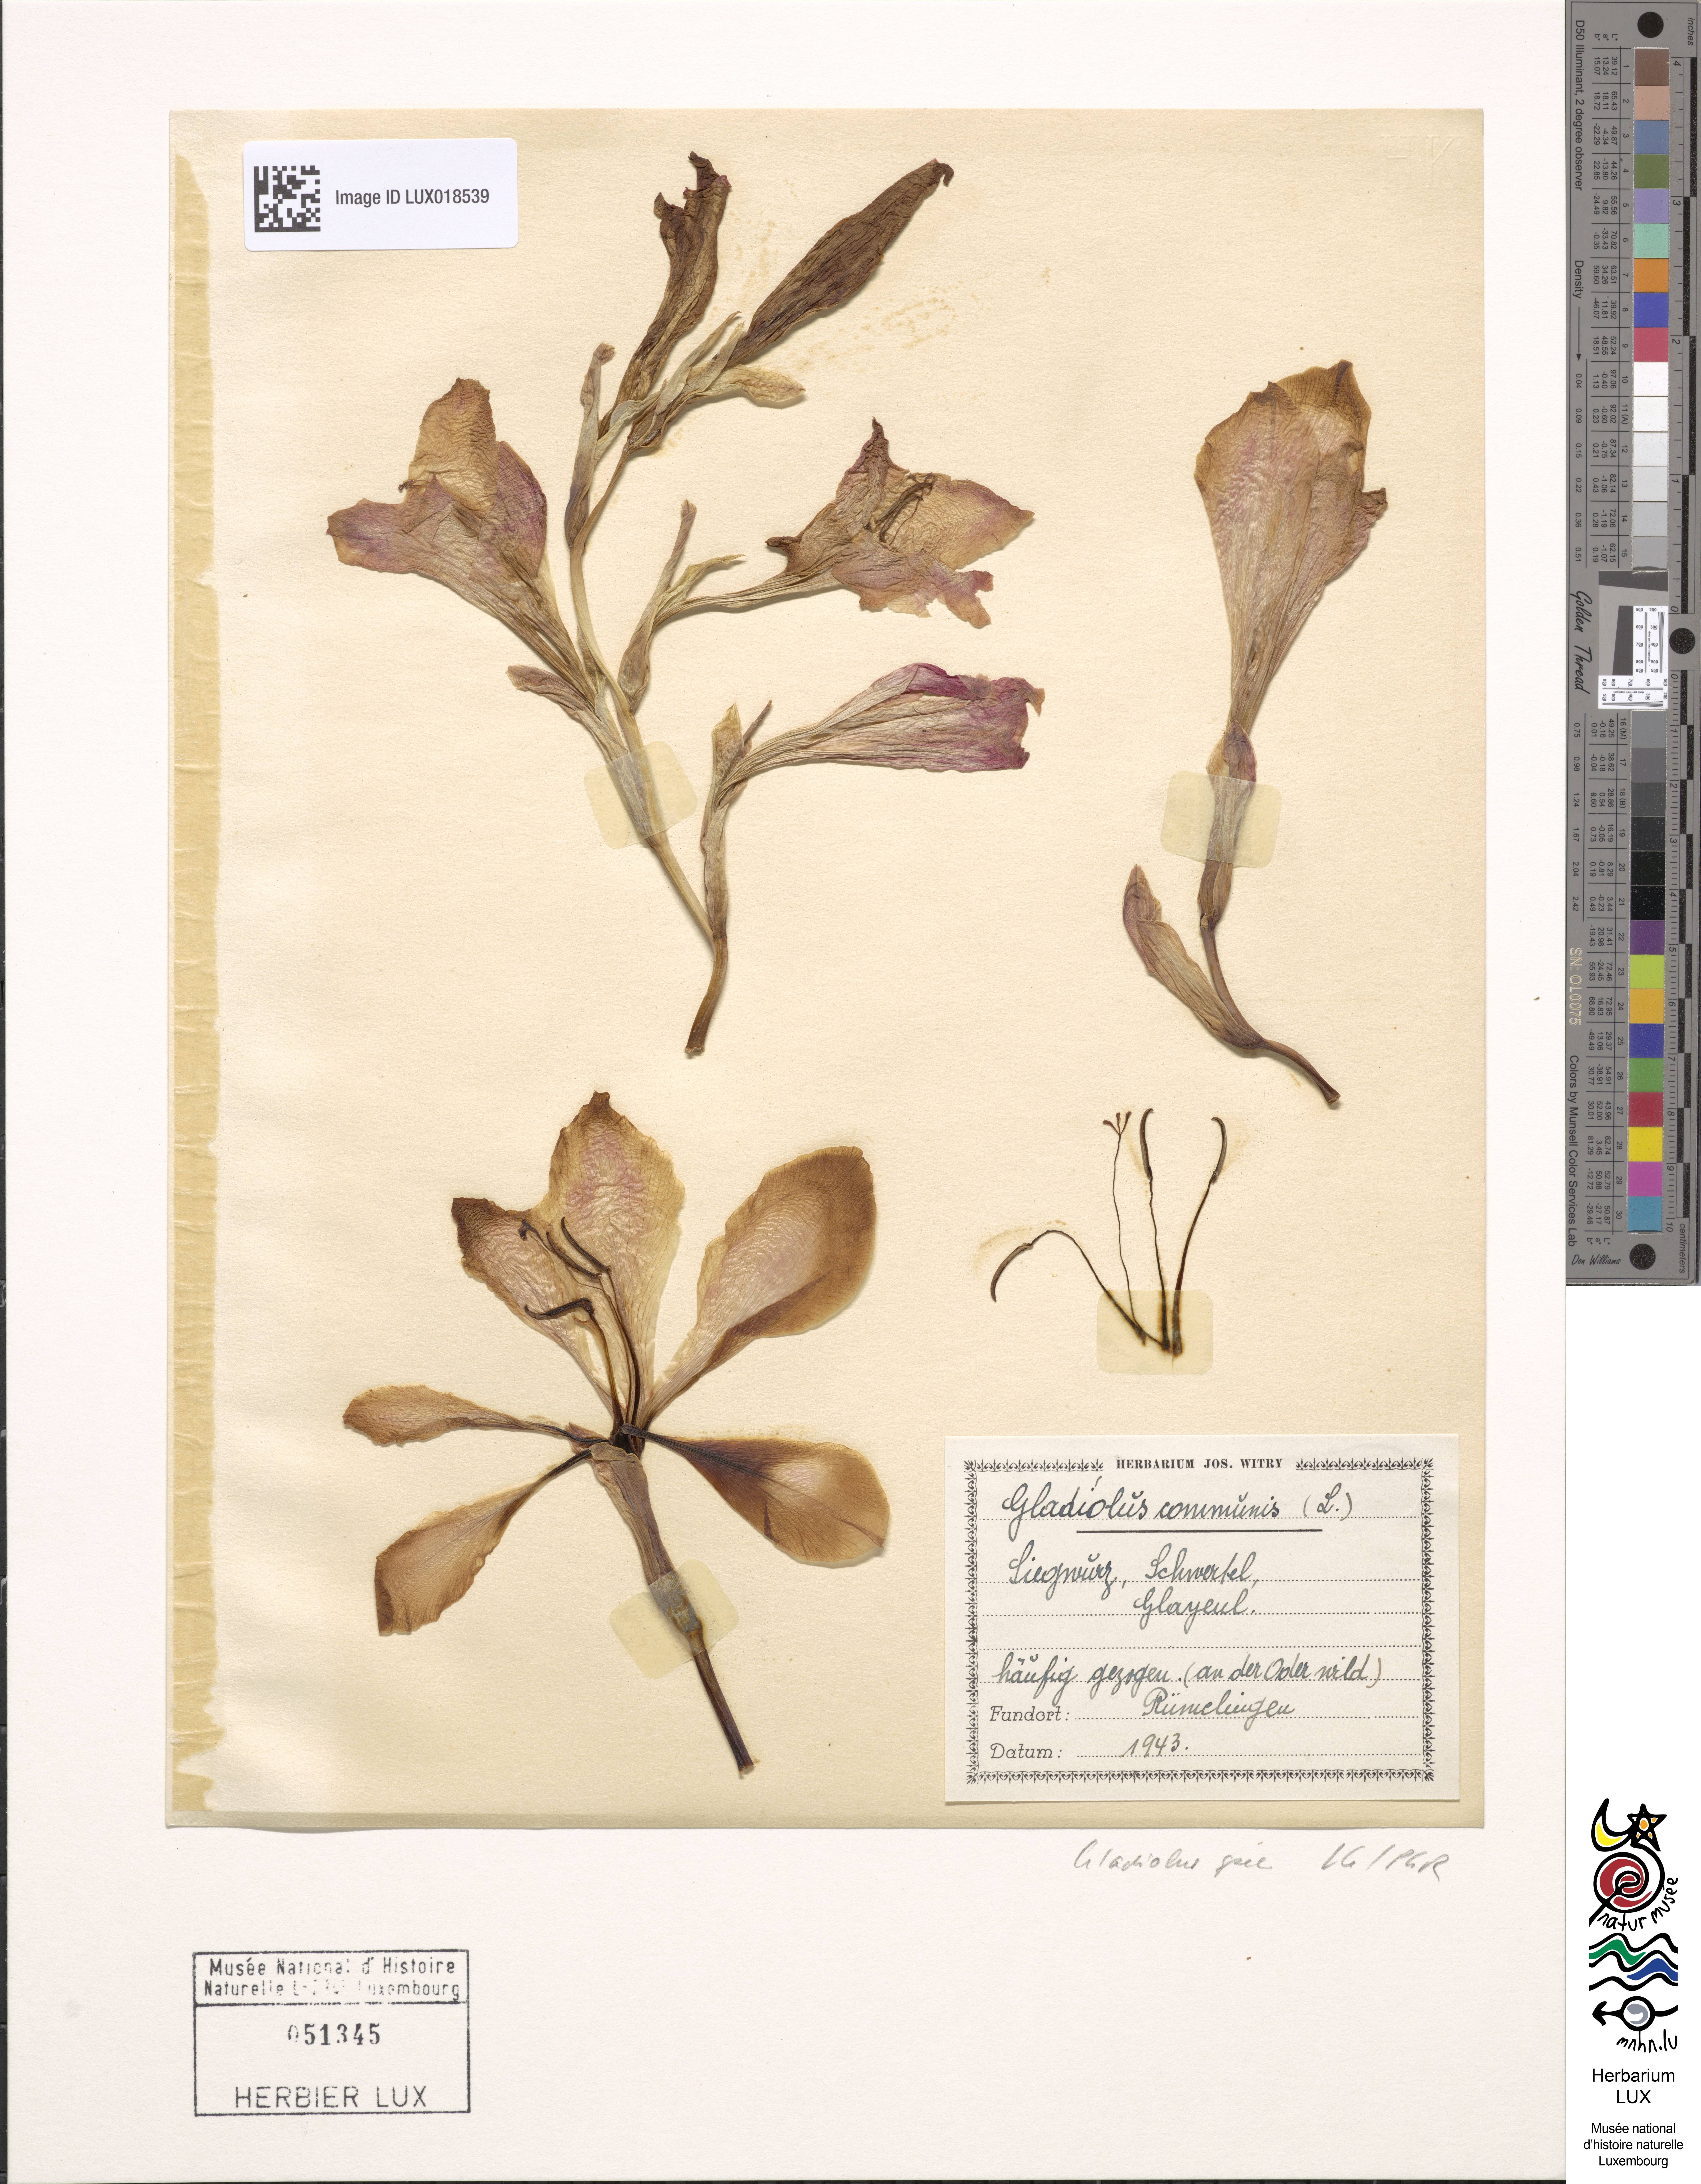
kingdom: Plantae
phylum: Tracheophyta
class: Liliopsida
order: Asparagales
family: Iridaceae
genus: Gladiolus
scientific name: Gladiolus
